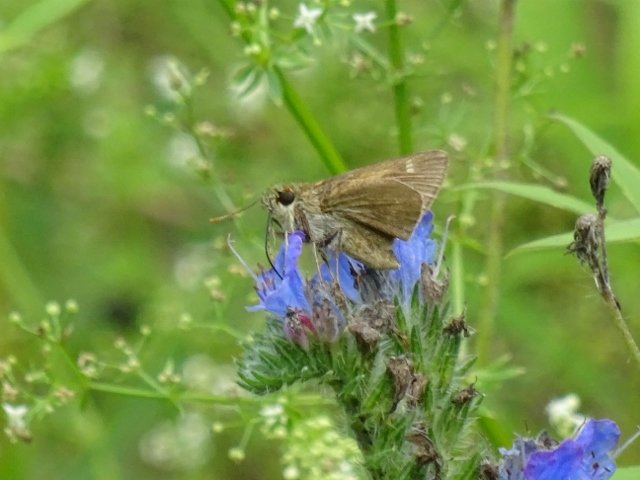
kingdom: Animalia
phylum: Arthropoda
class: Insecta
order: Lepidoptera
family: Hesperiidae
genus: Polites
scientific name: Polites themistocles
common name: Tawny-edged Skipper
